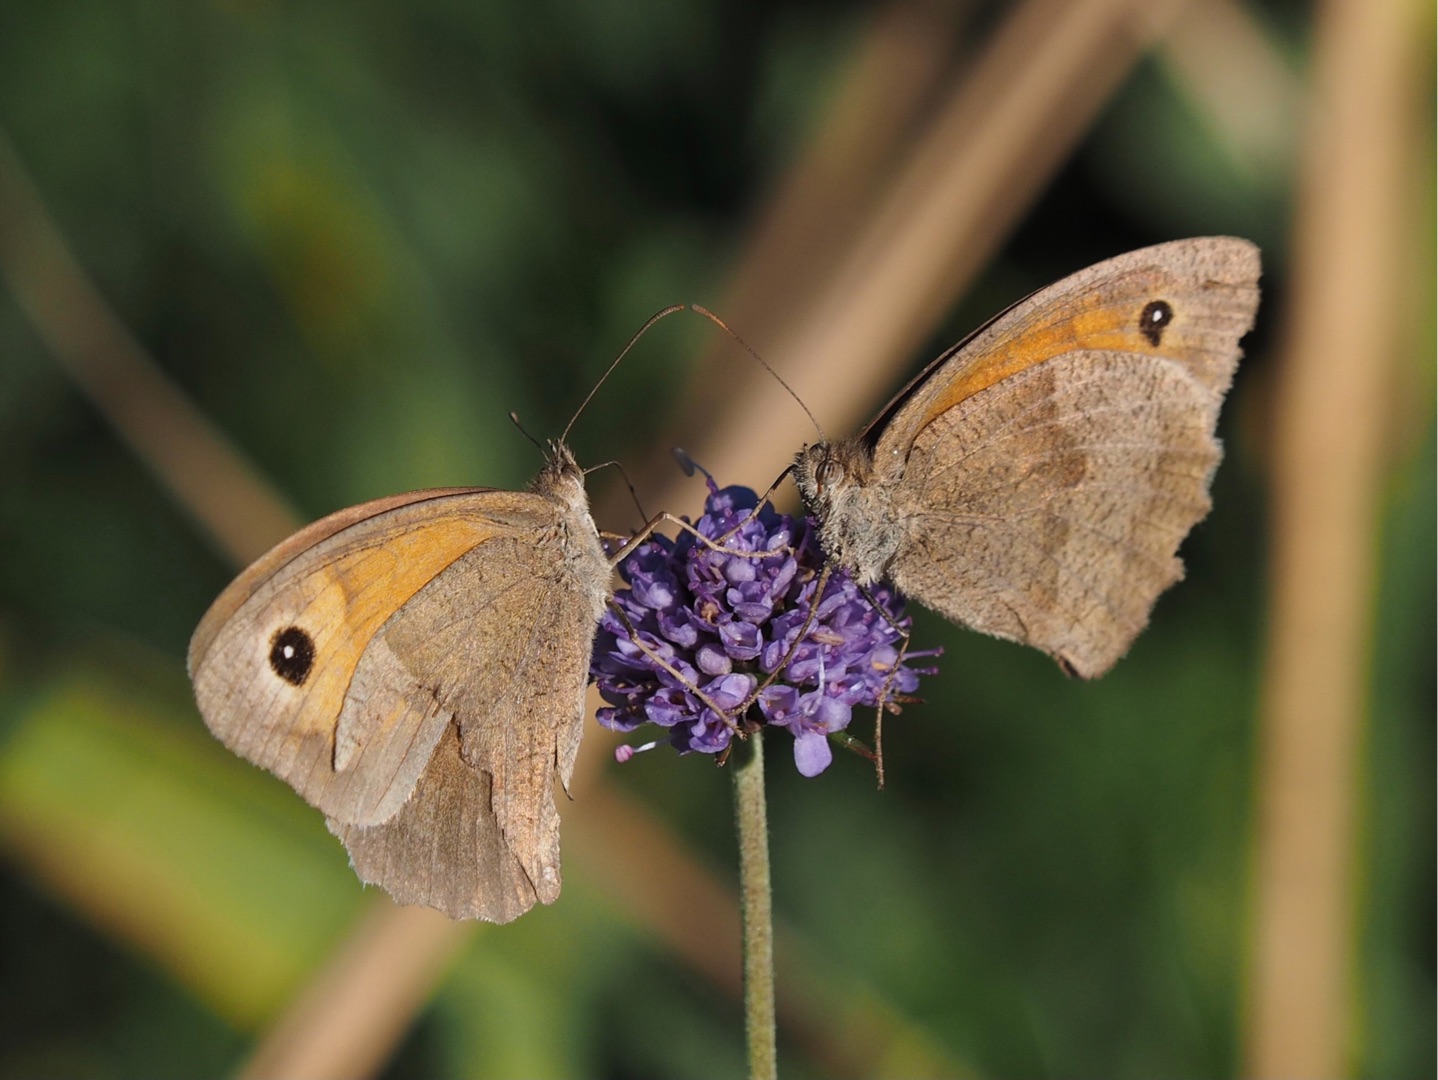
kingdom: Animalia
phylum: Arthropoda
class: Insecta
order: Lepidoptera
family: Nymphalidae
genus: Maniola
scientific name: Maniola jurtina
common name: Græsrandøje
